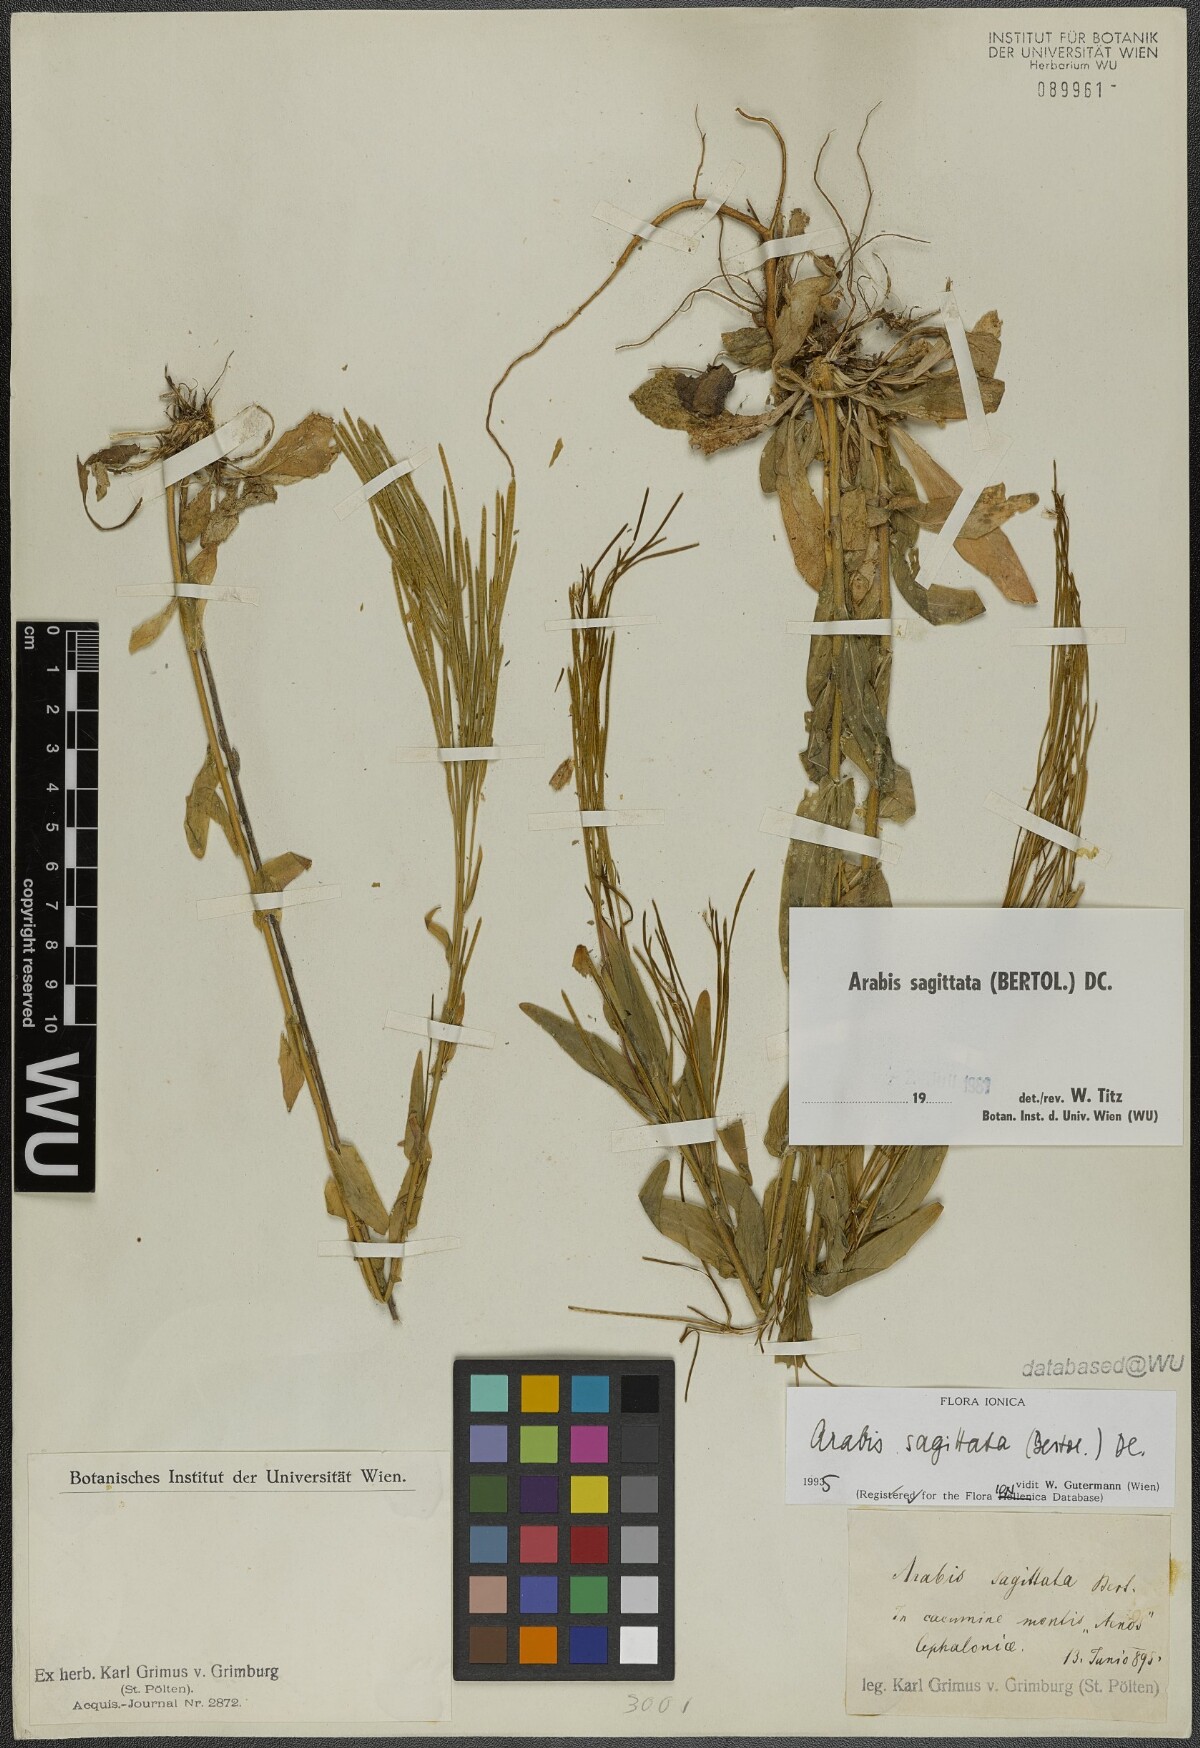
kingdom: Plantae
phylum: Tracheophyta
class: Magnoliopsida
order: Brassicales
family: Brassicaceae
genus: Arabis
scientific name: Arabis sagittata
